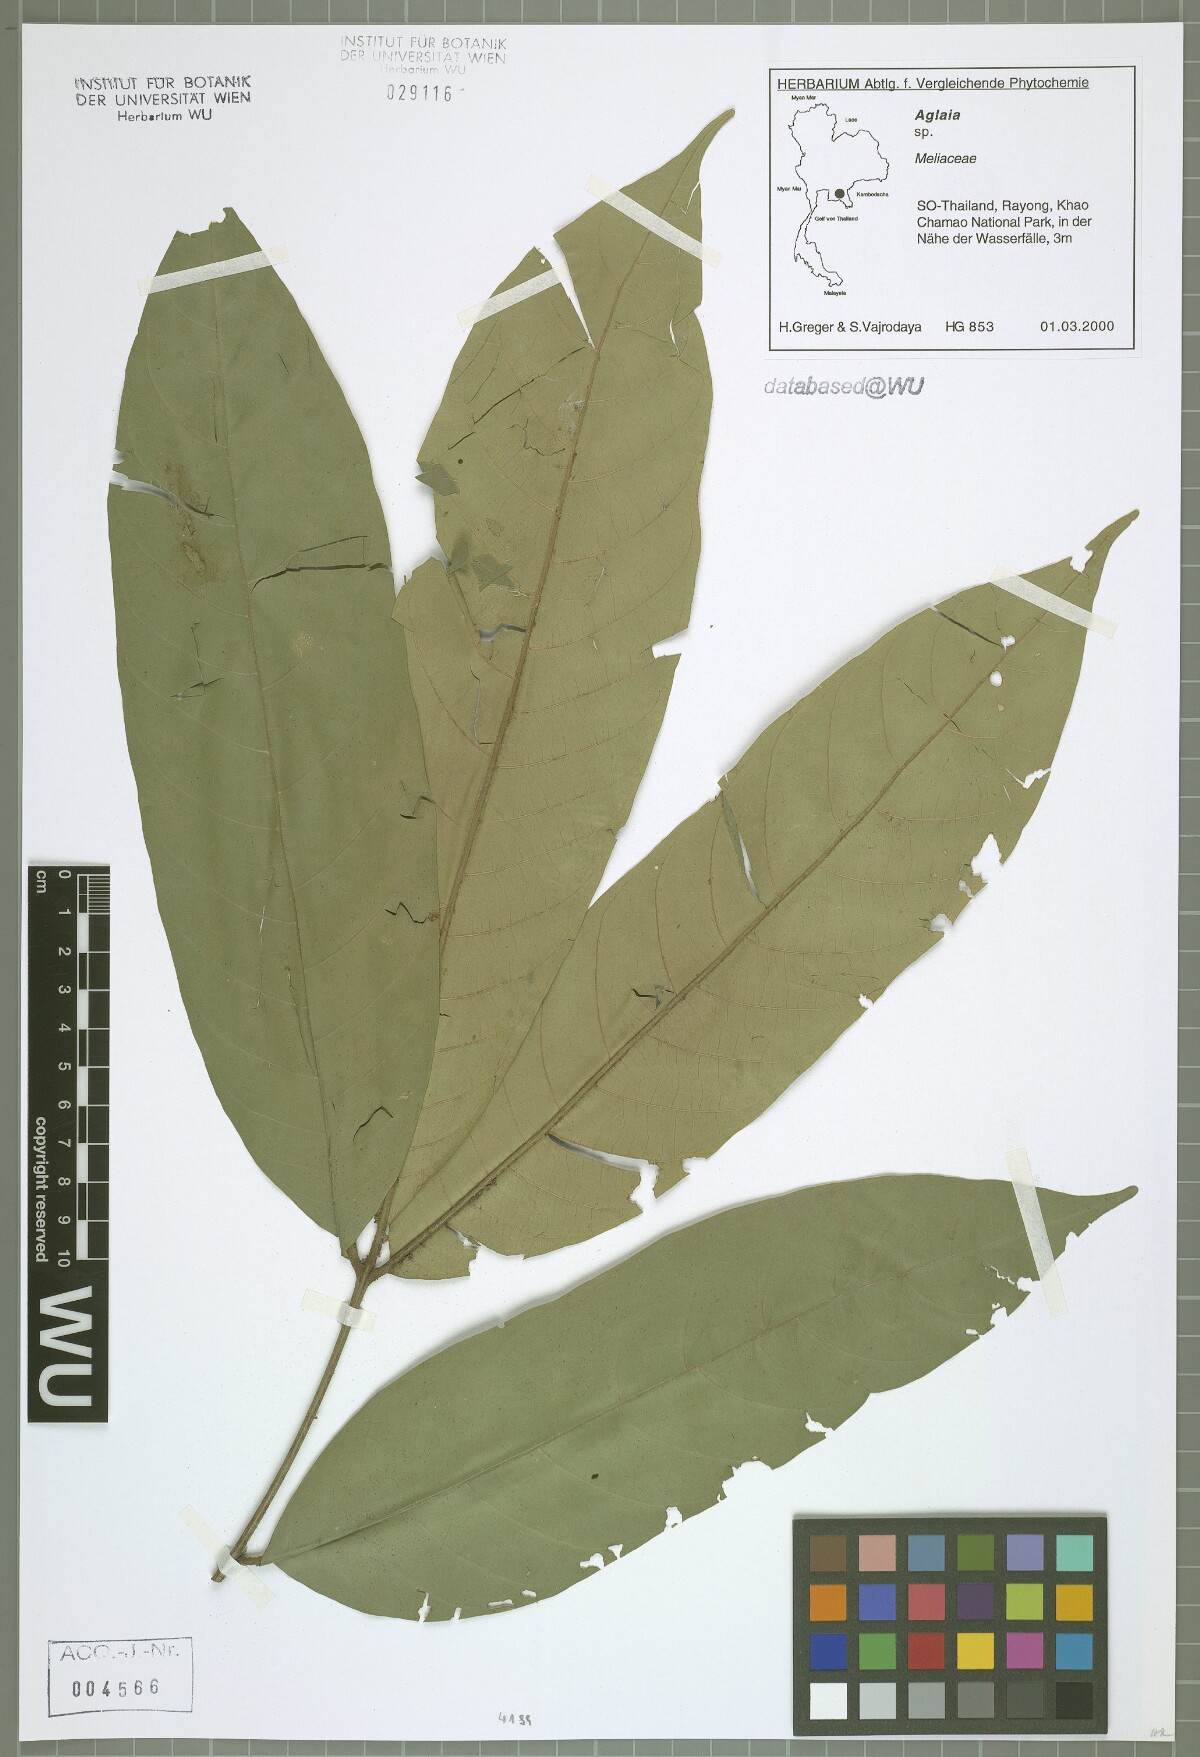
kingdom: Plantae
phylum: Tracheophyta
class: Magnoliopsida
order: Sapindales
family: Meliaceae
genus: Aglaia
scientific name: Aglaia edulis
